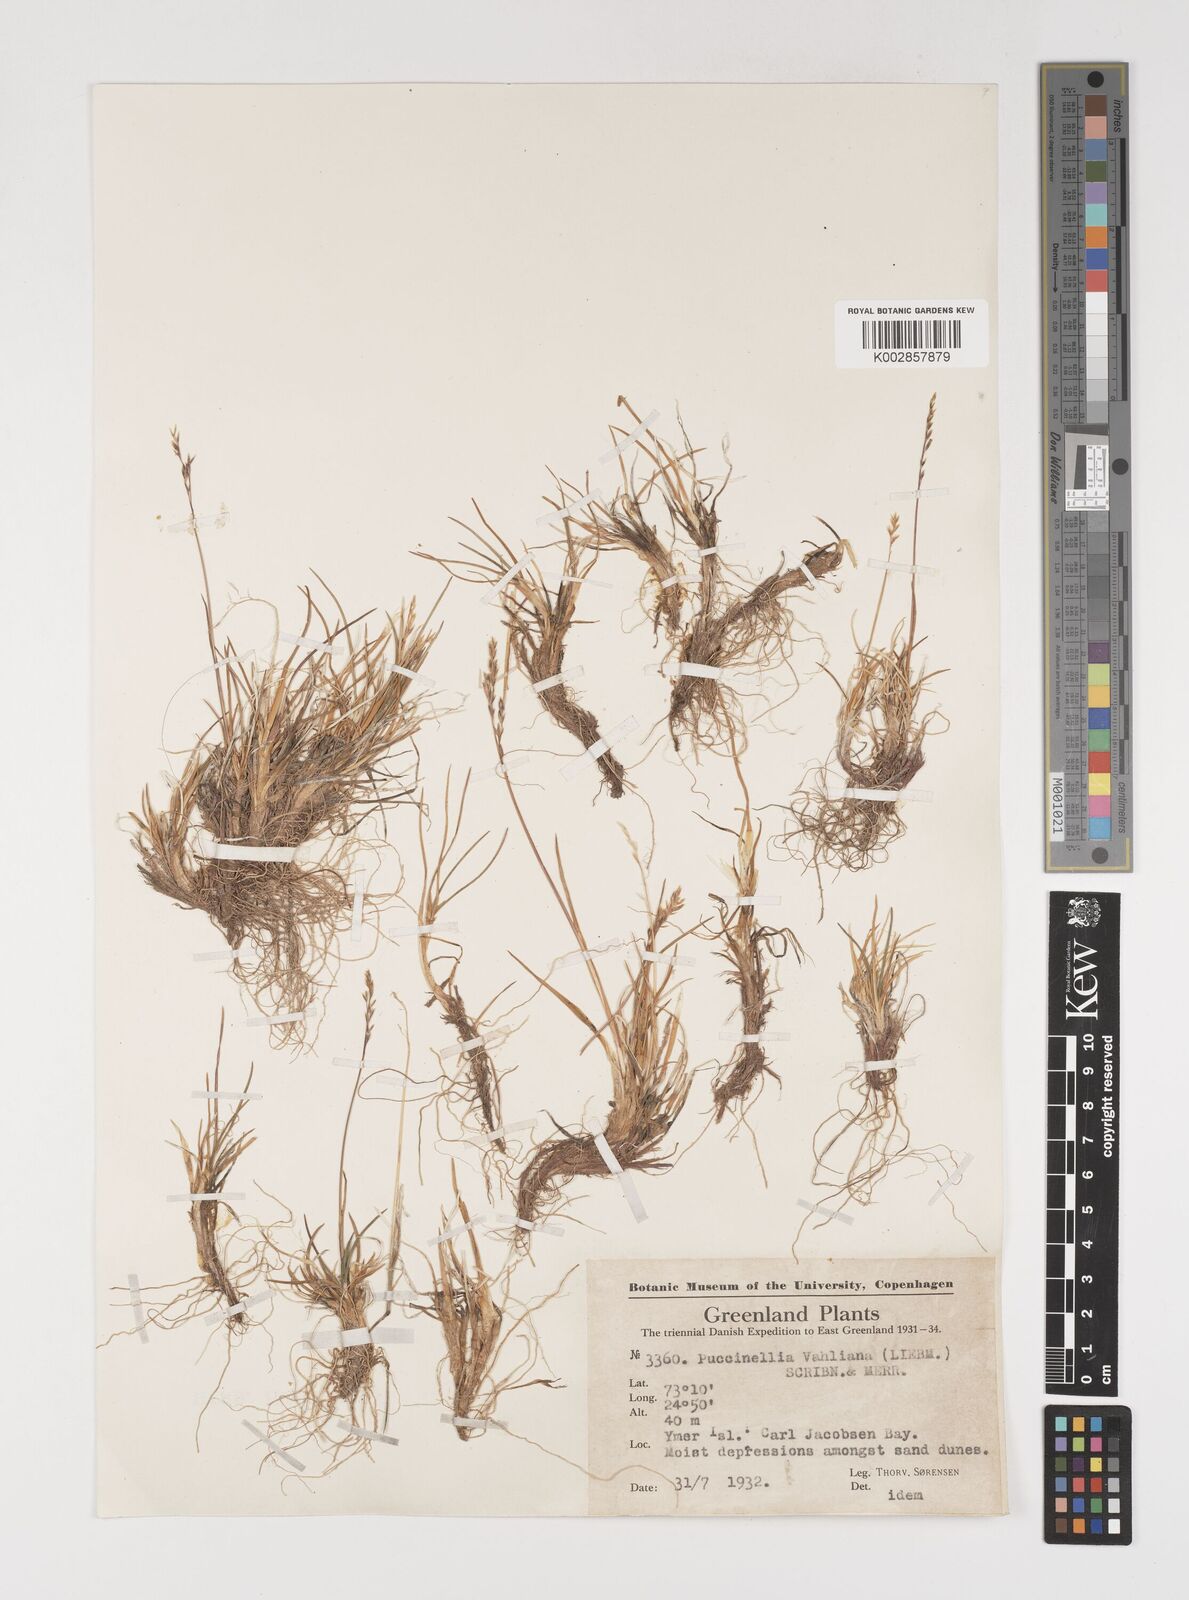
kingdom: Plantae
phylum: Tracheophyta
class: Liliopsida
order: Poales
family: Poaceae
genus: Puccinellia
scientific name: Puccinellia vahliana
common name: Vahl's alkaligrass
